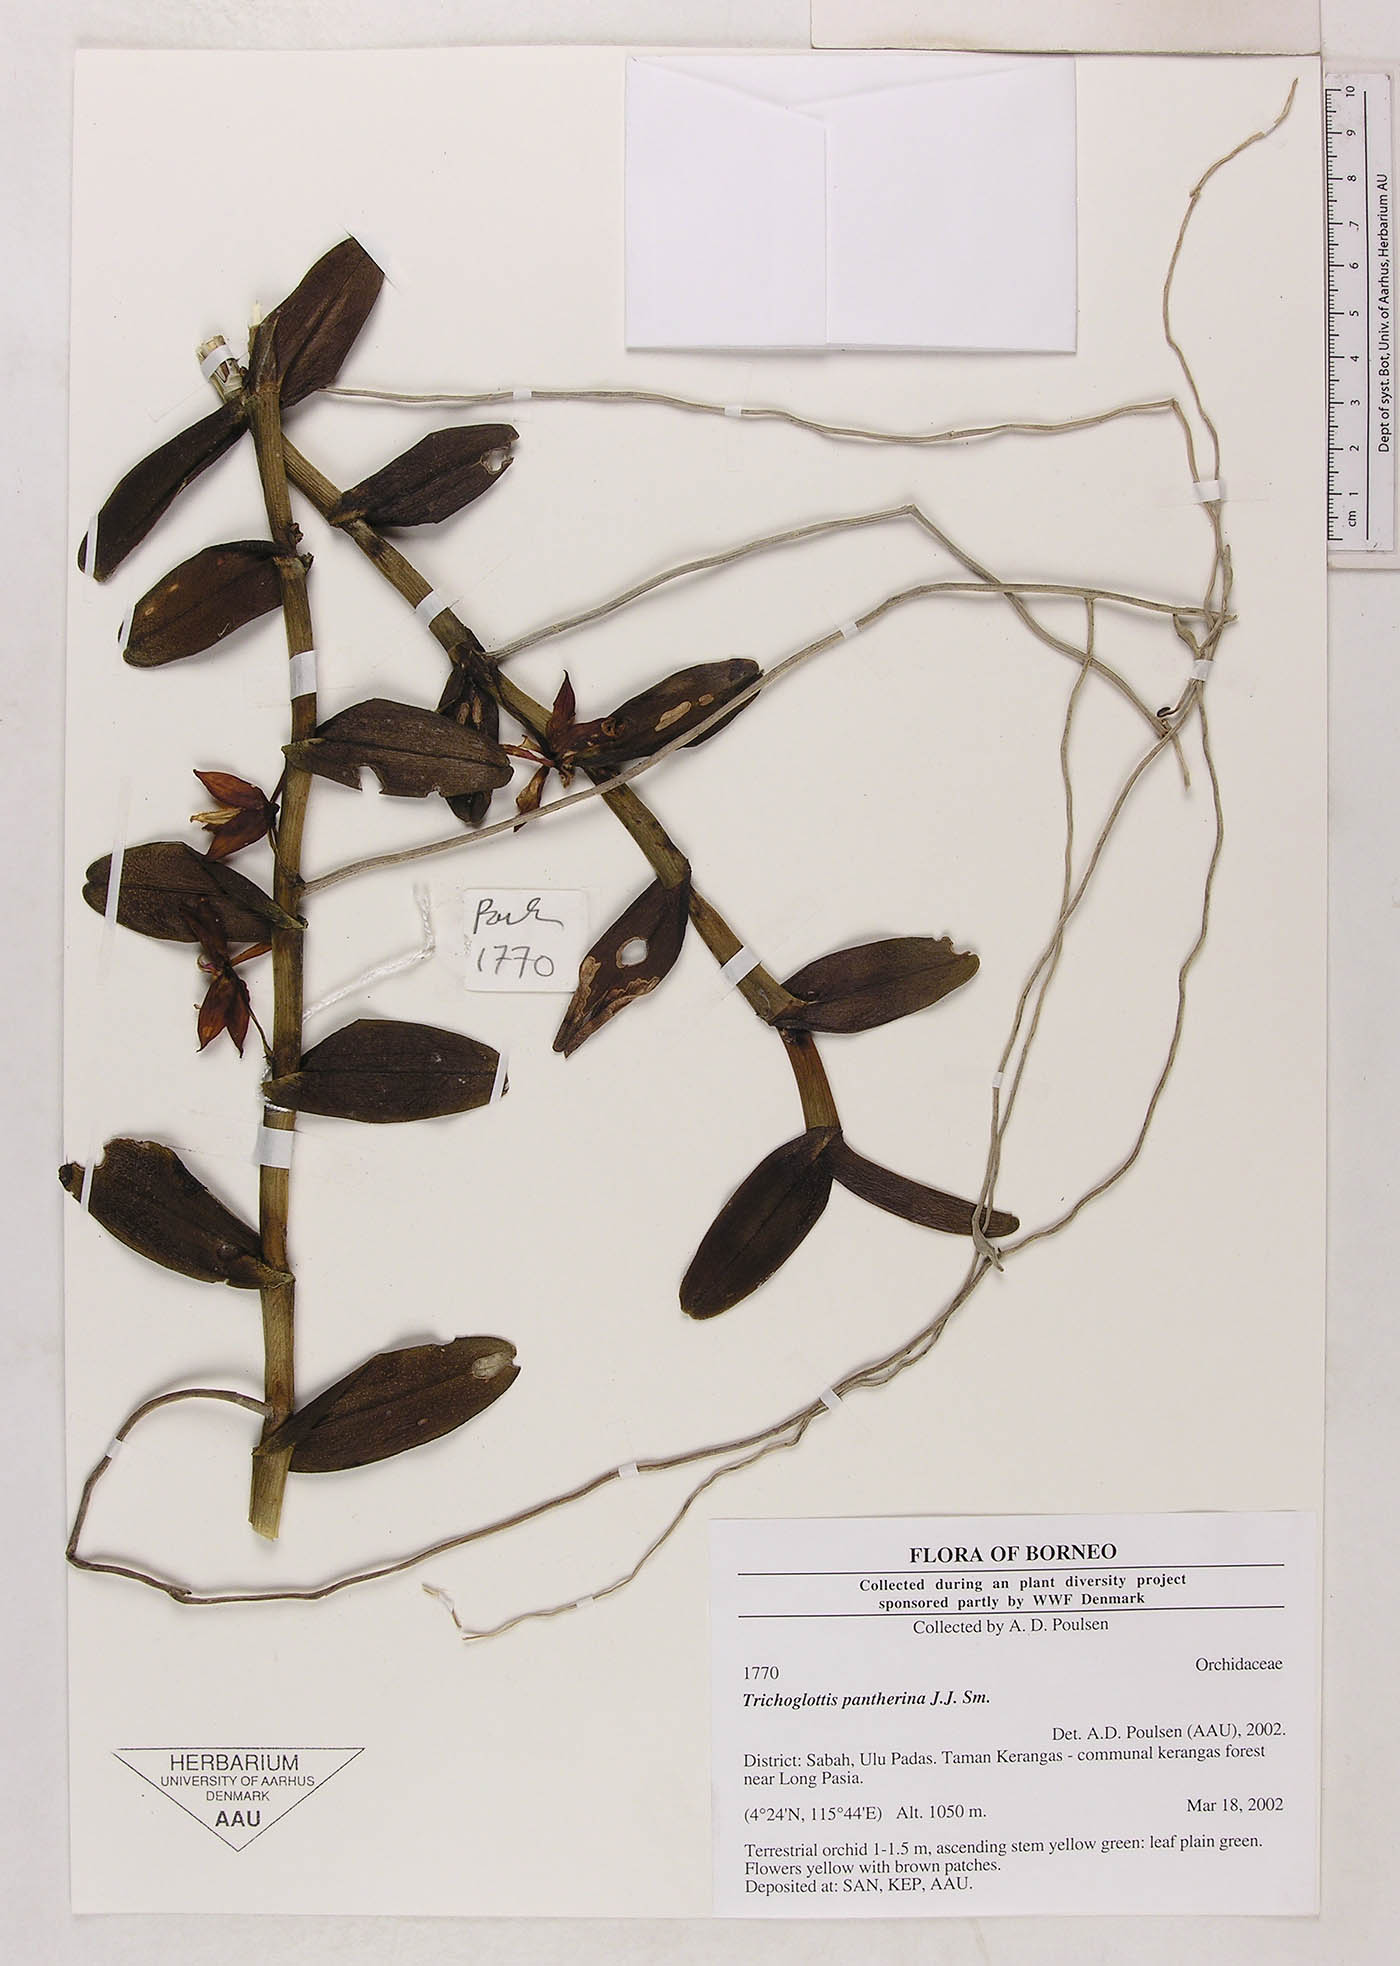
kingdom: Plantae
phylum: Tracheophyta
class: Liliopsida
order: Asparagales
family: Orchidaceae
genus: Trichoglottis
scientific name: Trichoglottis pantherina
